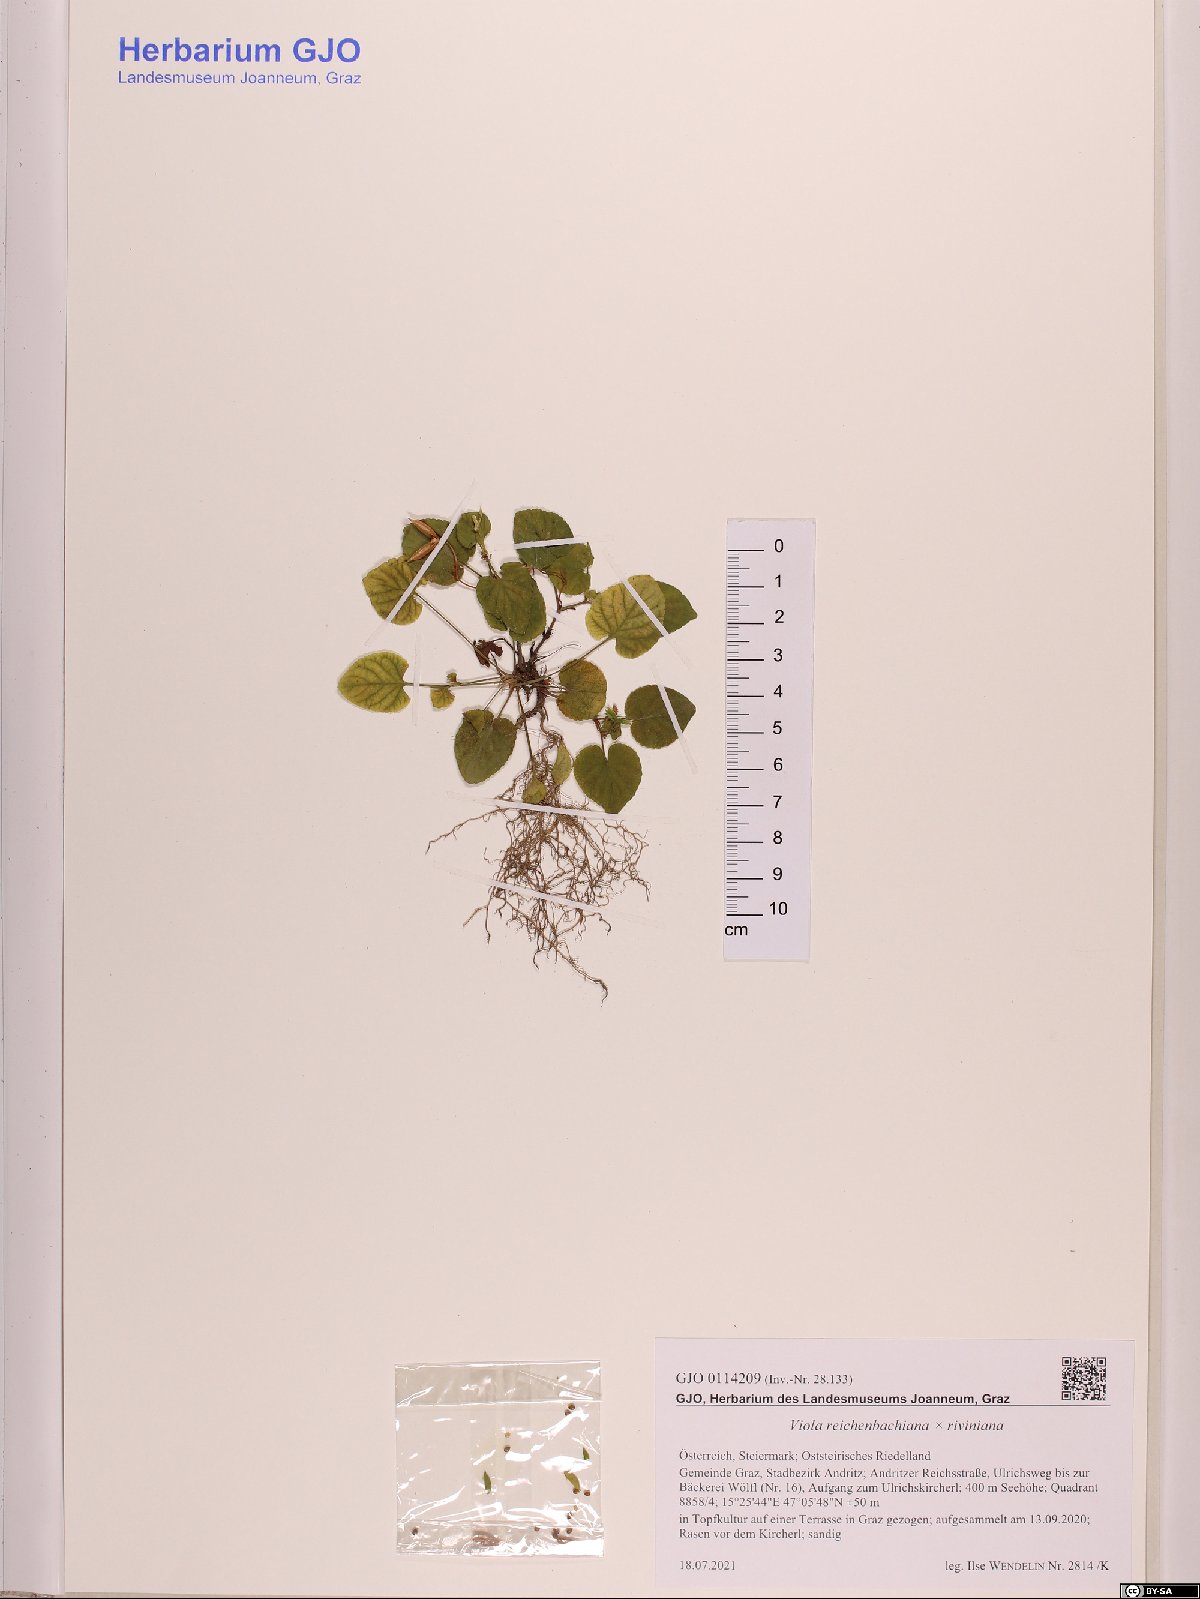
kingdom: Plantae
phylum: Tracheophyta
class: Magnoliopsida
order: Malpighiales
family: Violaceae
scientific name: Violaceae
